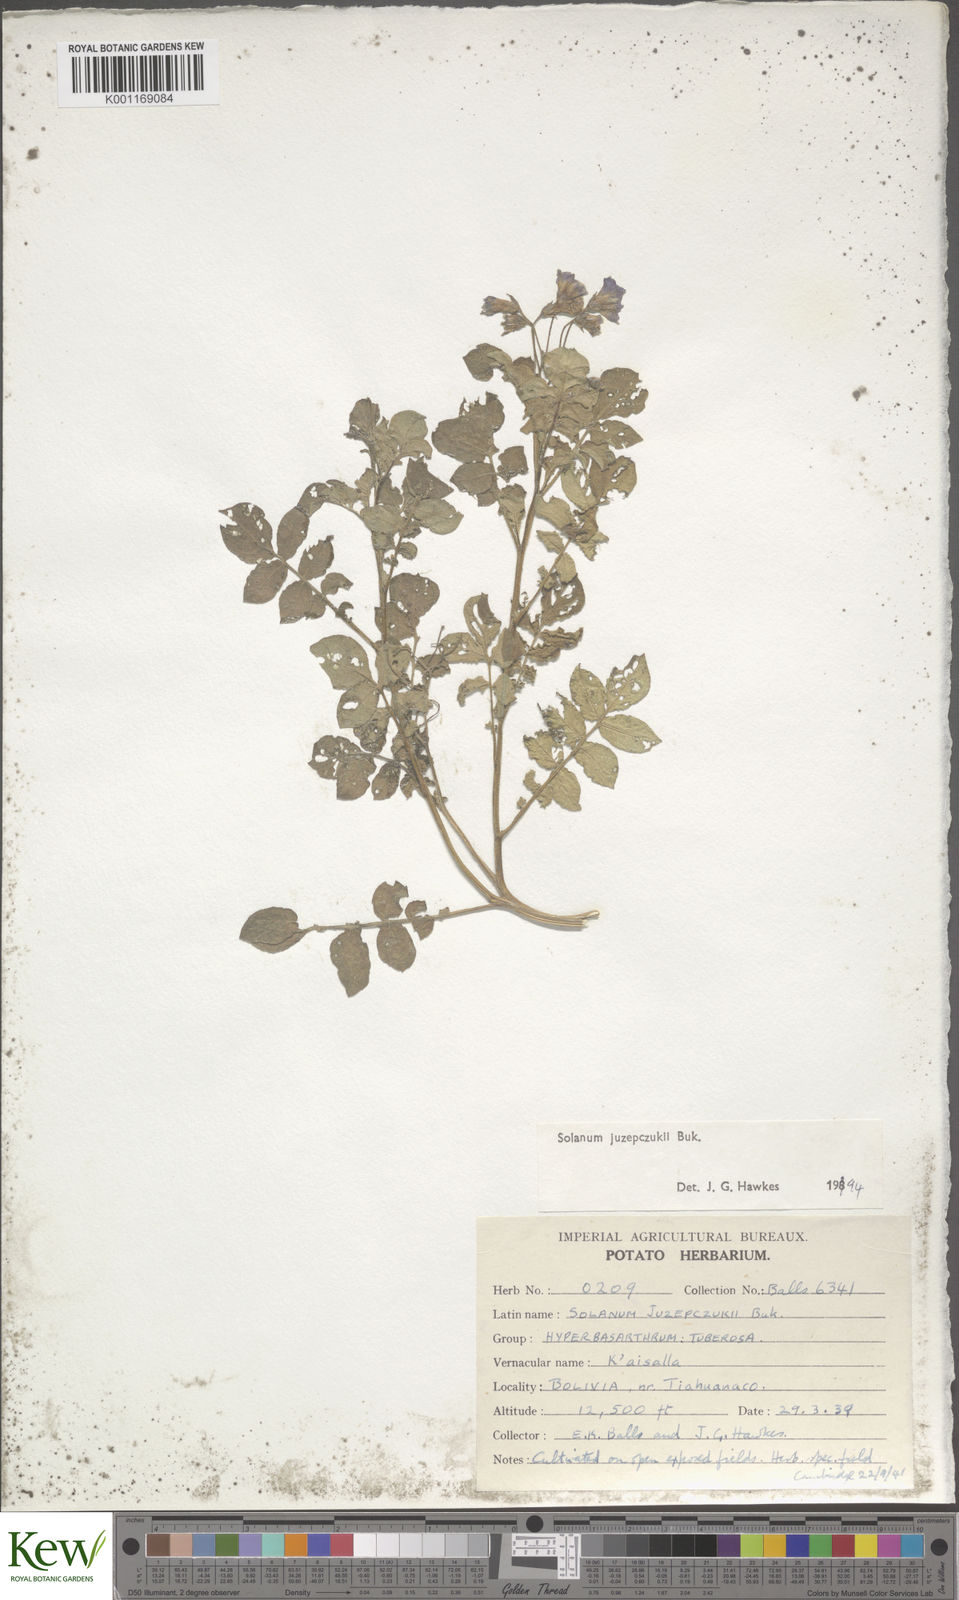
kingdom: Plantae
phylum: Tracheophyta
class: Magnoliopsida
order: Solanales
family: Solanaceae
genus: Solanum
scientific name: Solanum juzepczukii
